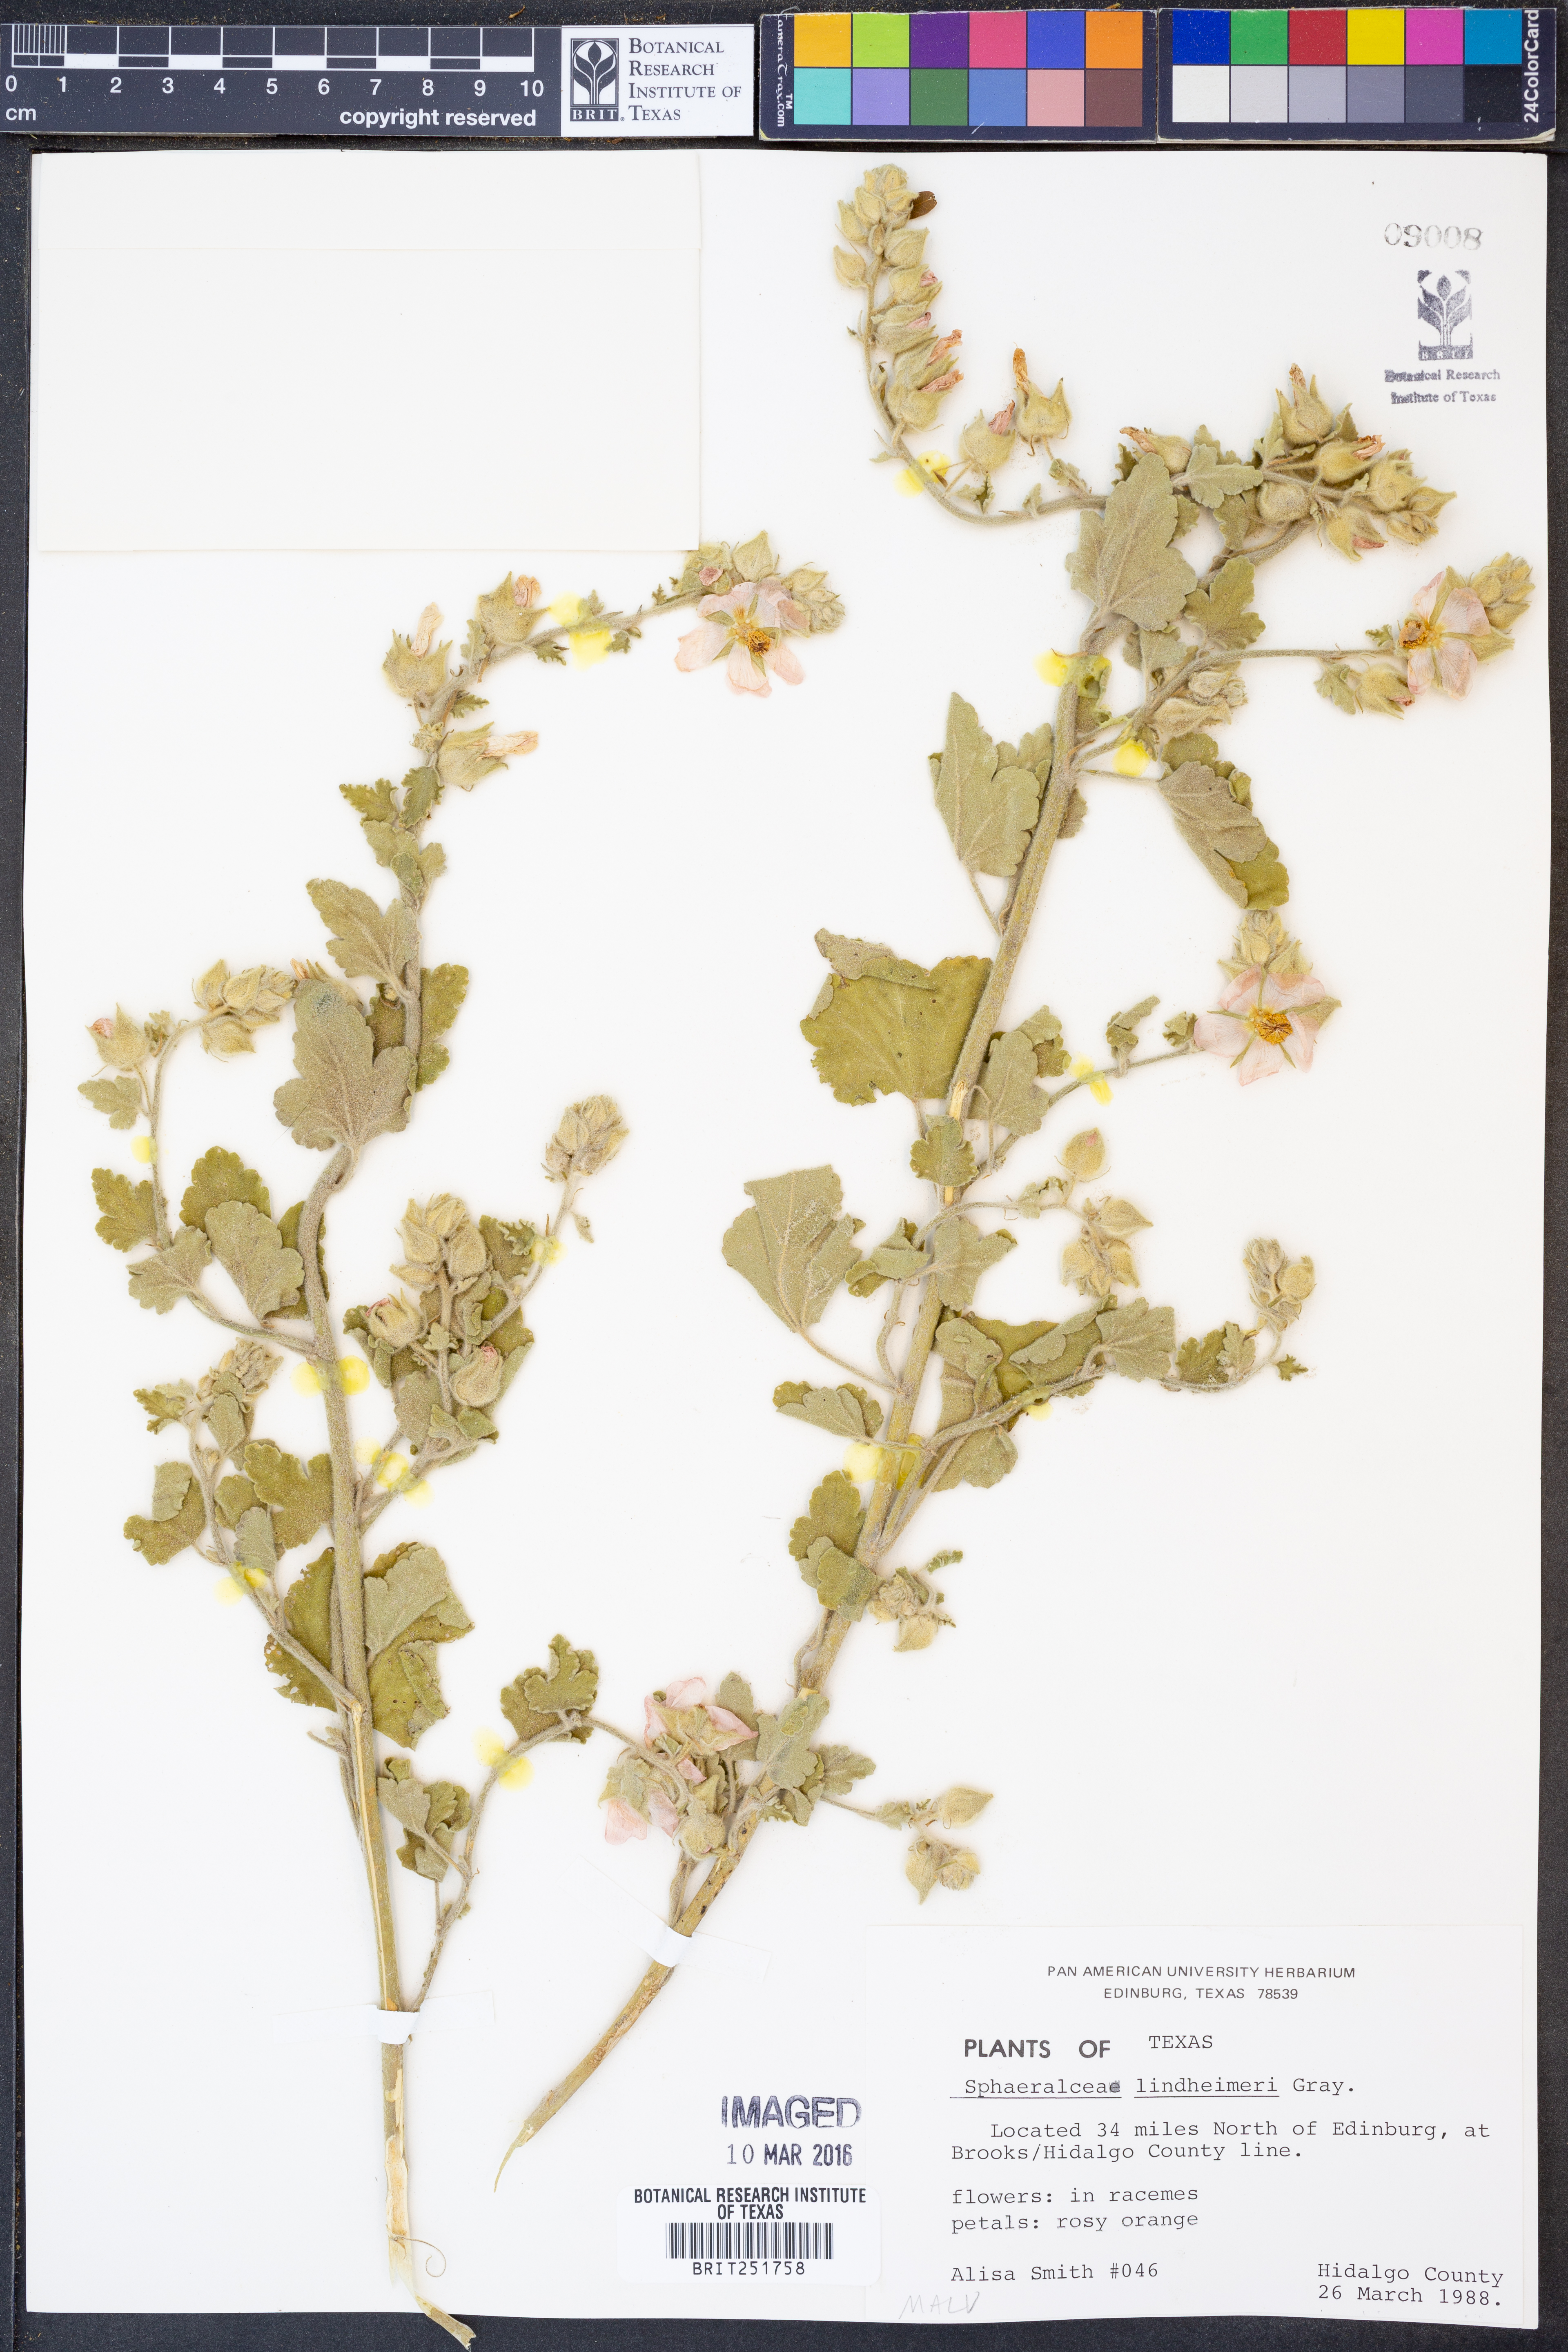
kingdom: Plantae
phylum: Tracheophyta
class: Magnoliopsida
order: Malvales
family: Malvaceae
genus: Sphaeralcea
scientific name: Sphaeralcea lindheimeri
